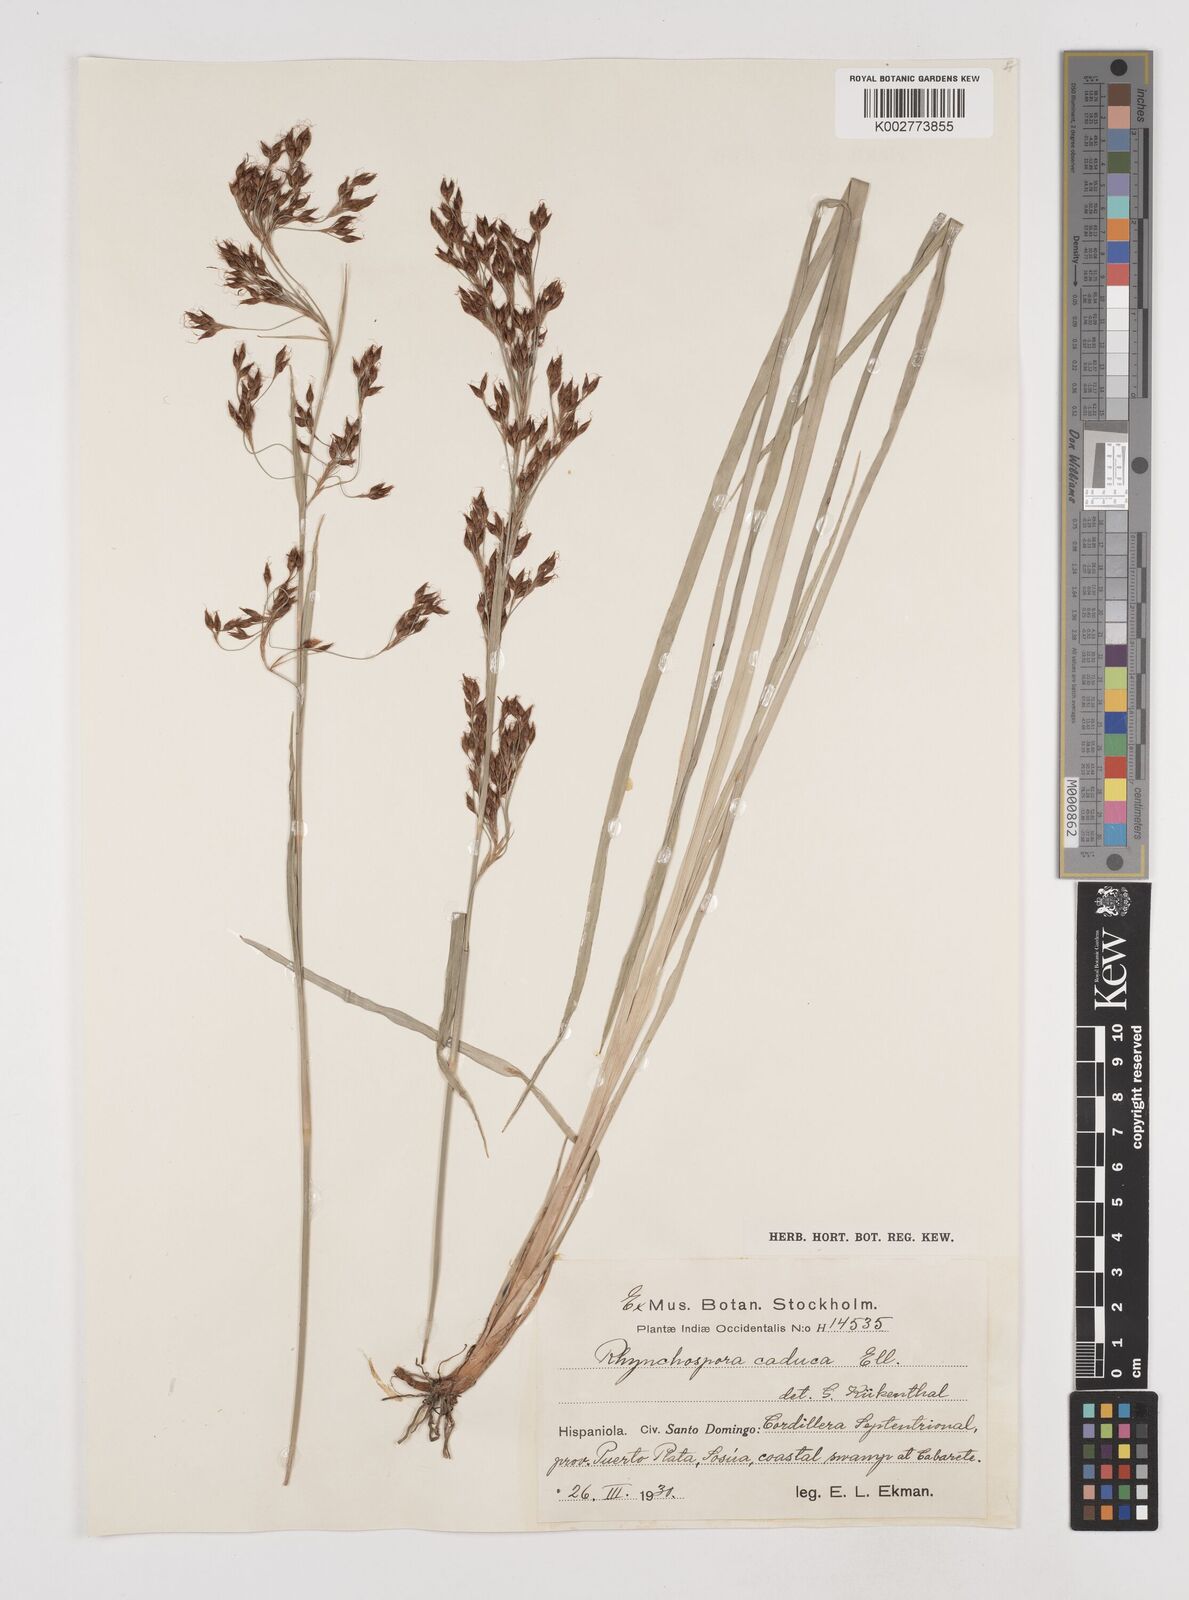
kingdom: Plantae
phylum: Tracheophyta
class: Liliopsida
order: Poales
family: Cyperaceae
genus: Rhynchospora
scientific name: Rhynchospora caduca
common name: Anglestem beaksedge
